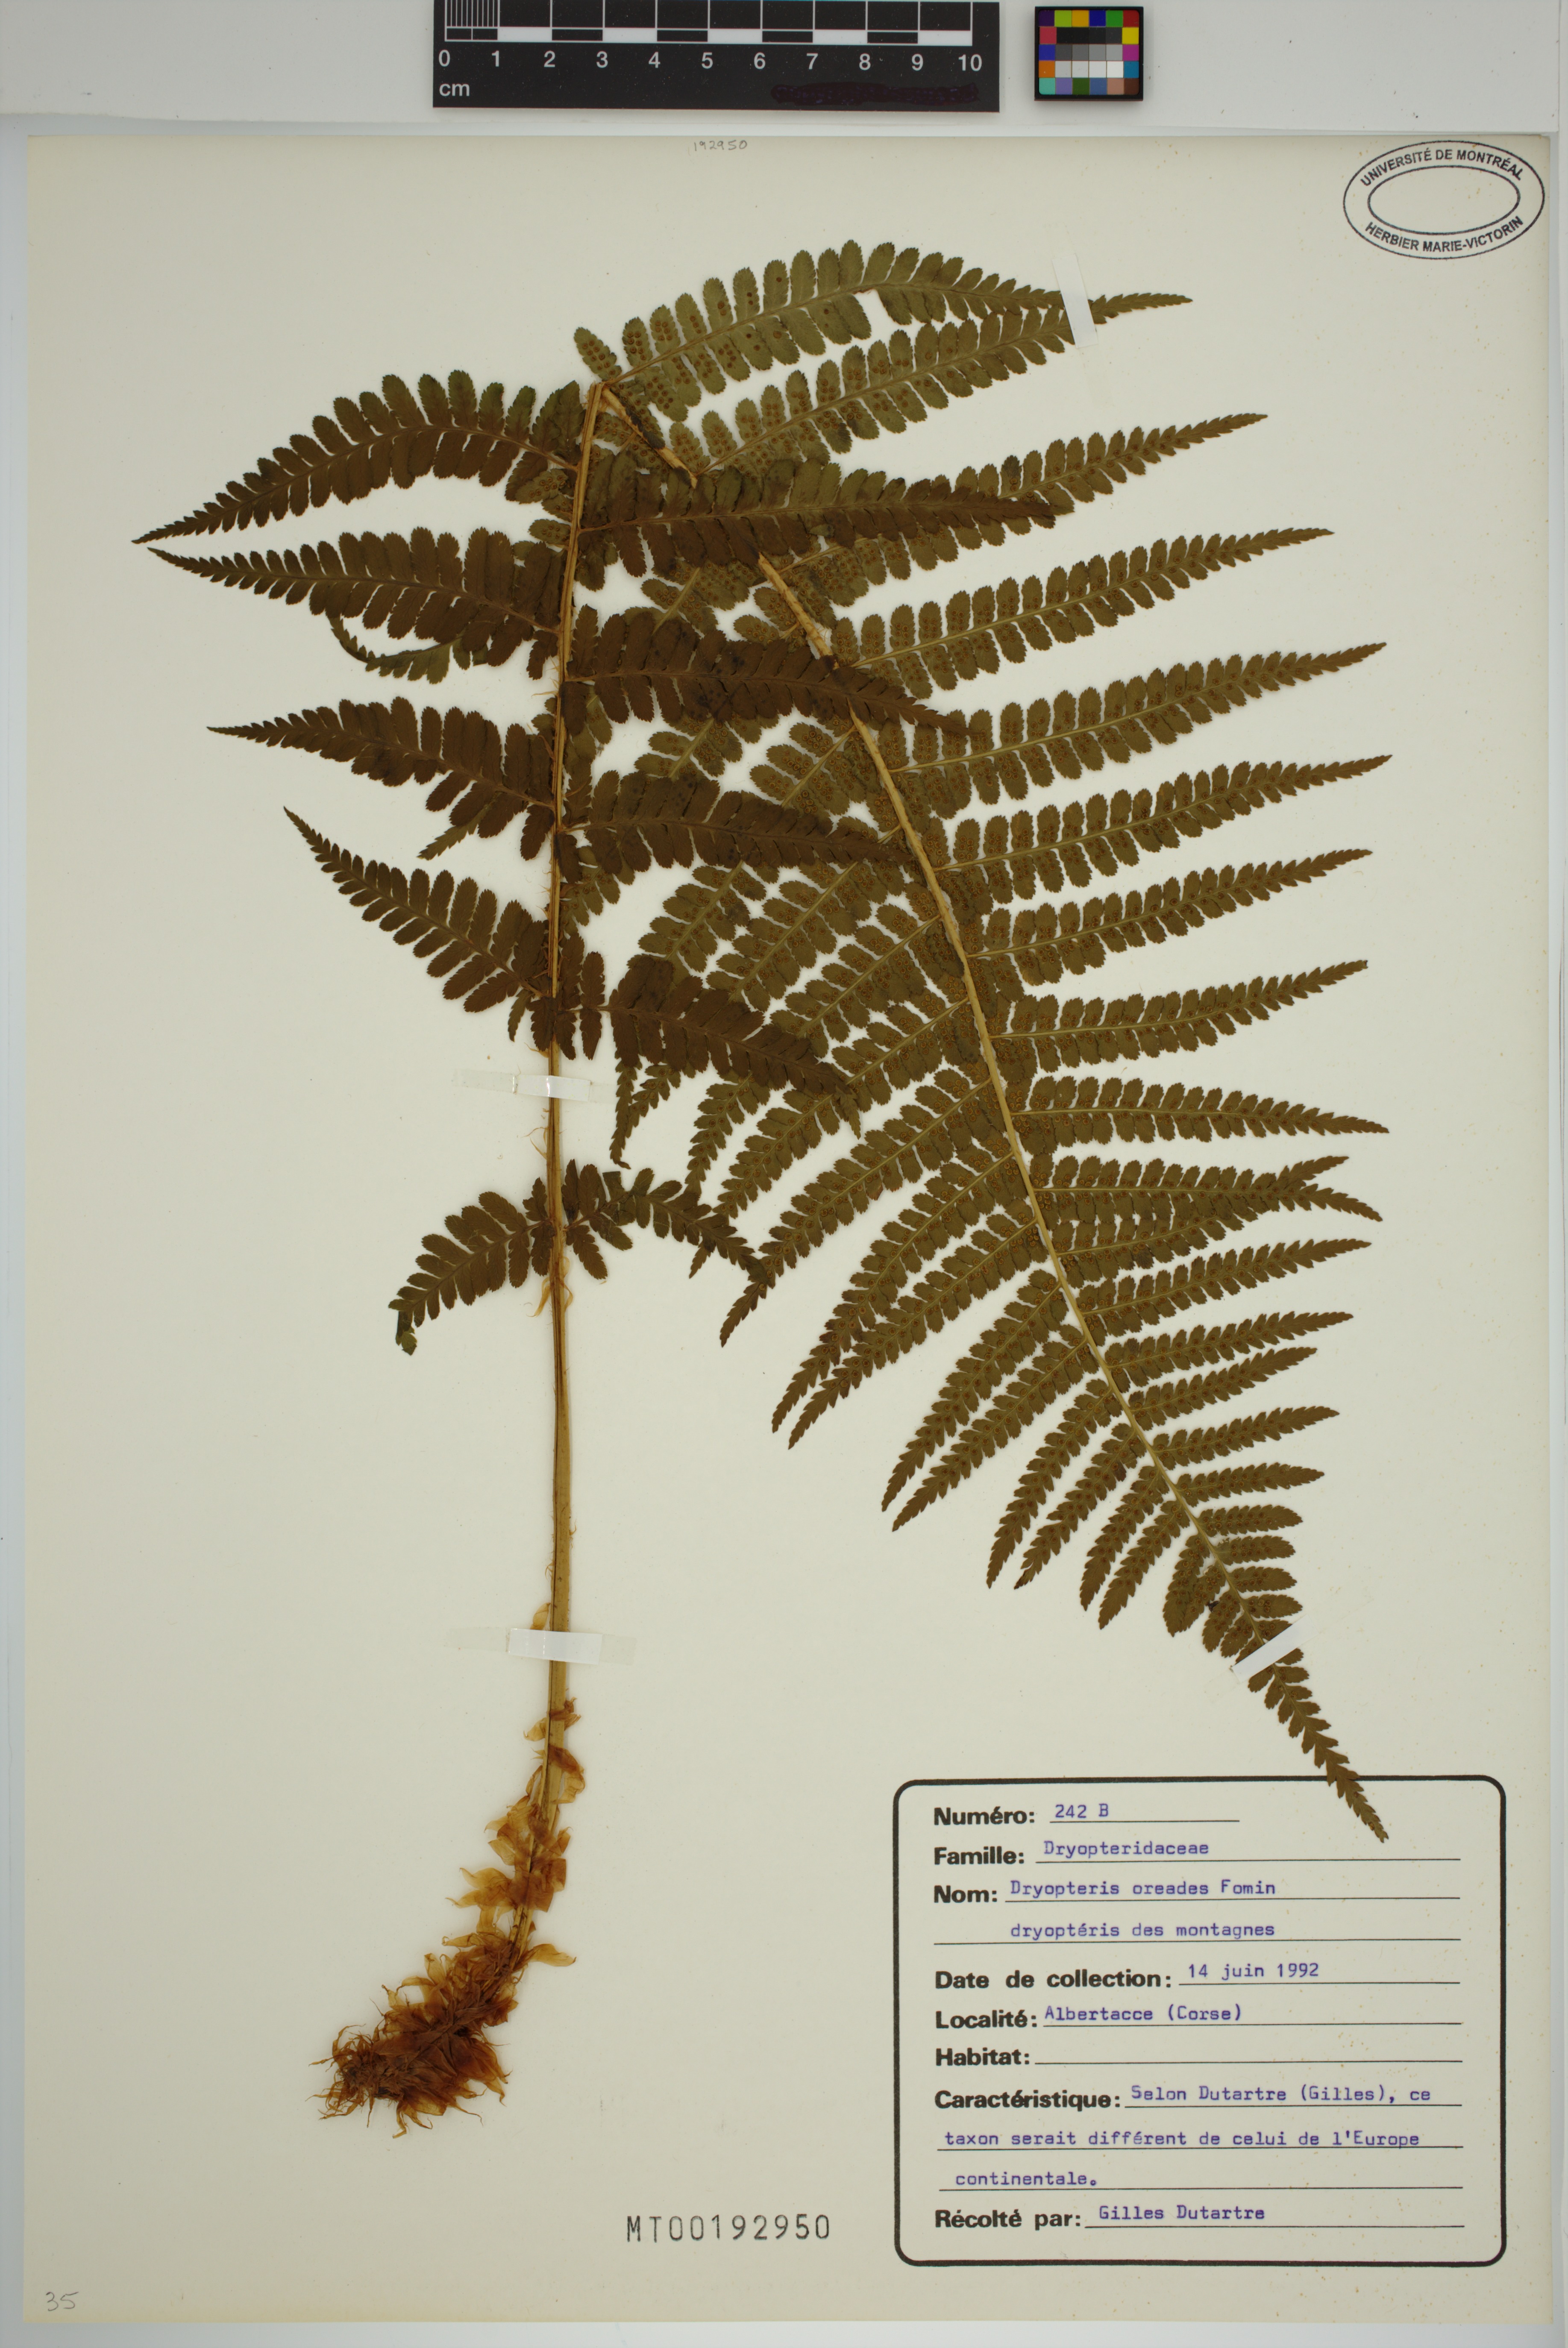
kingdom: Plantae
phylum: Tracheophyta
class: Polypodiopsida
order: Polypodiales
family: Dryopteridaceae
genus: Dryopteris
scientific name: Dryopteris oreades
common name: Mountain male fern
